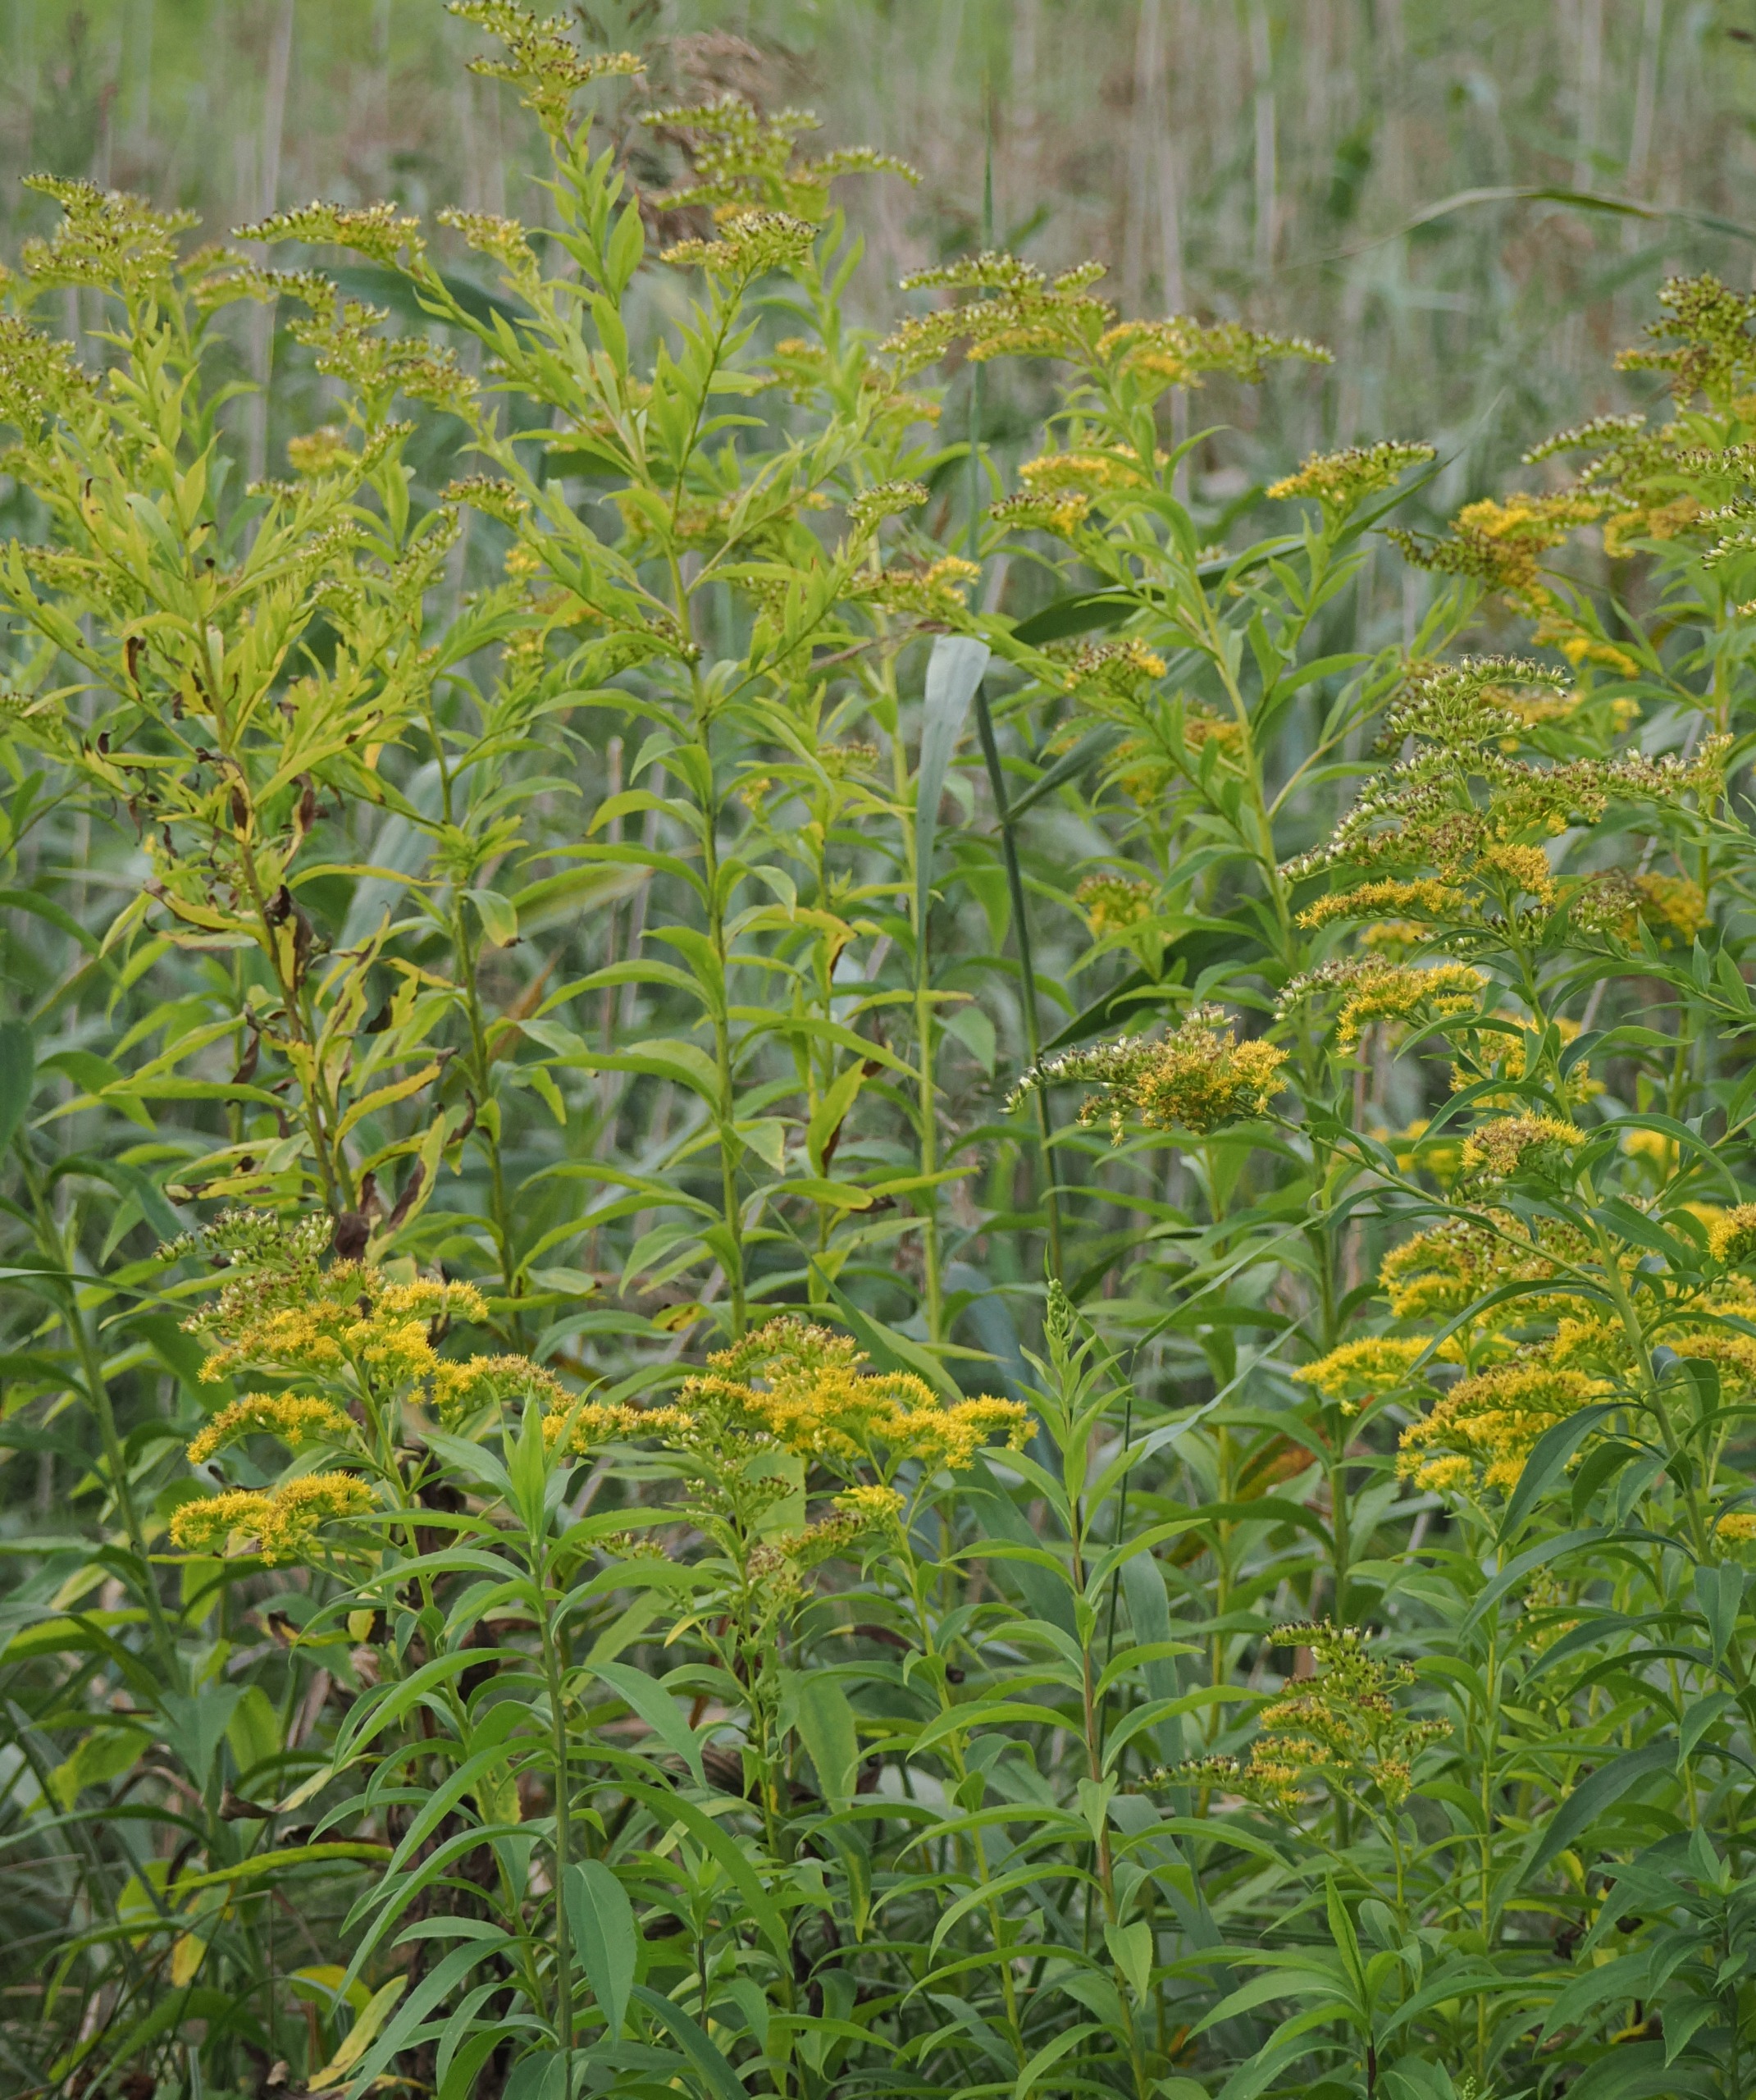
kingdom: Plantae
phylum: Tracheophyta
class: Magnoliopsida
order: Asterales
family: Asteraceae
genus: Solidago
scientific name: Solidago gigantea
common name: Sildig gyldenris
